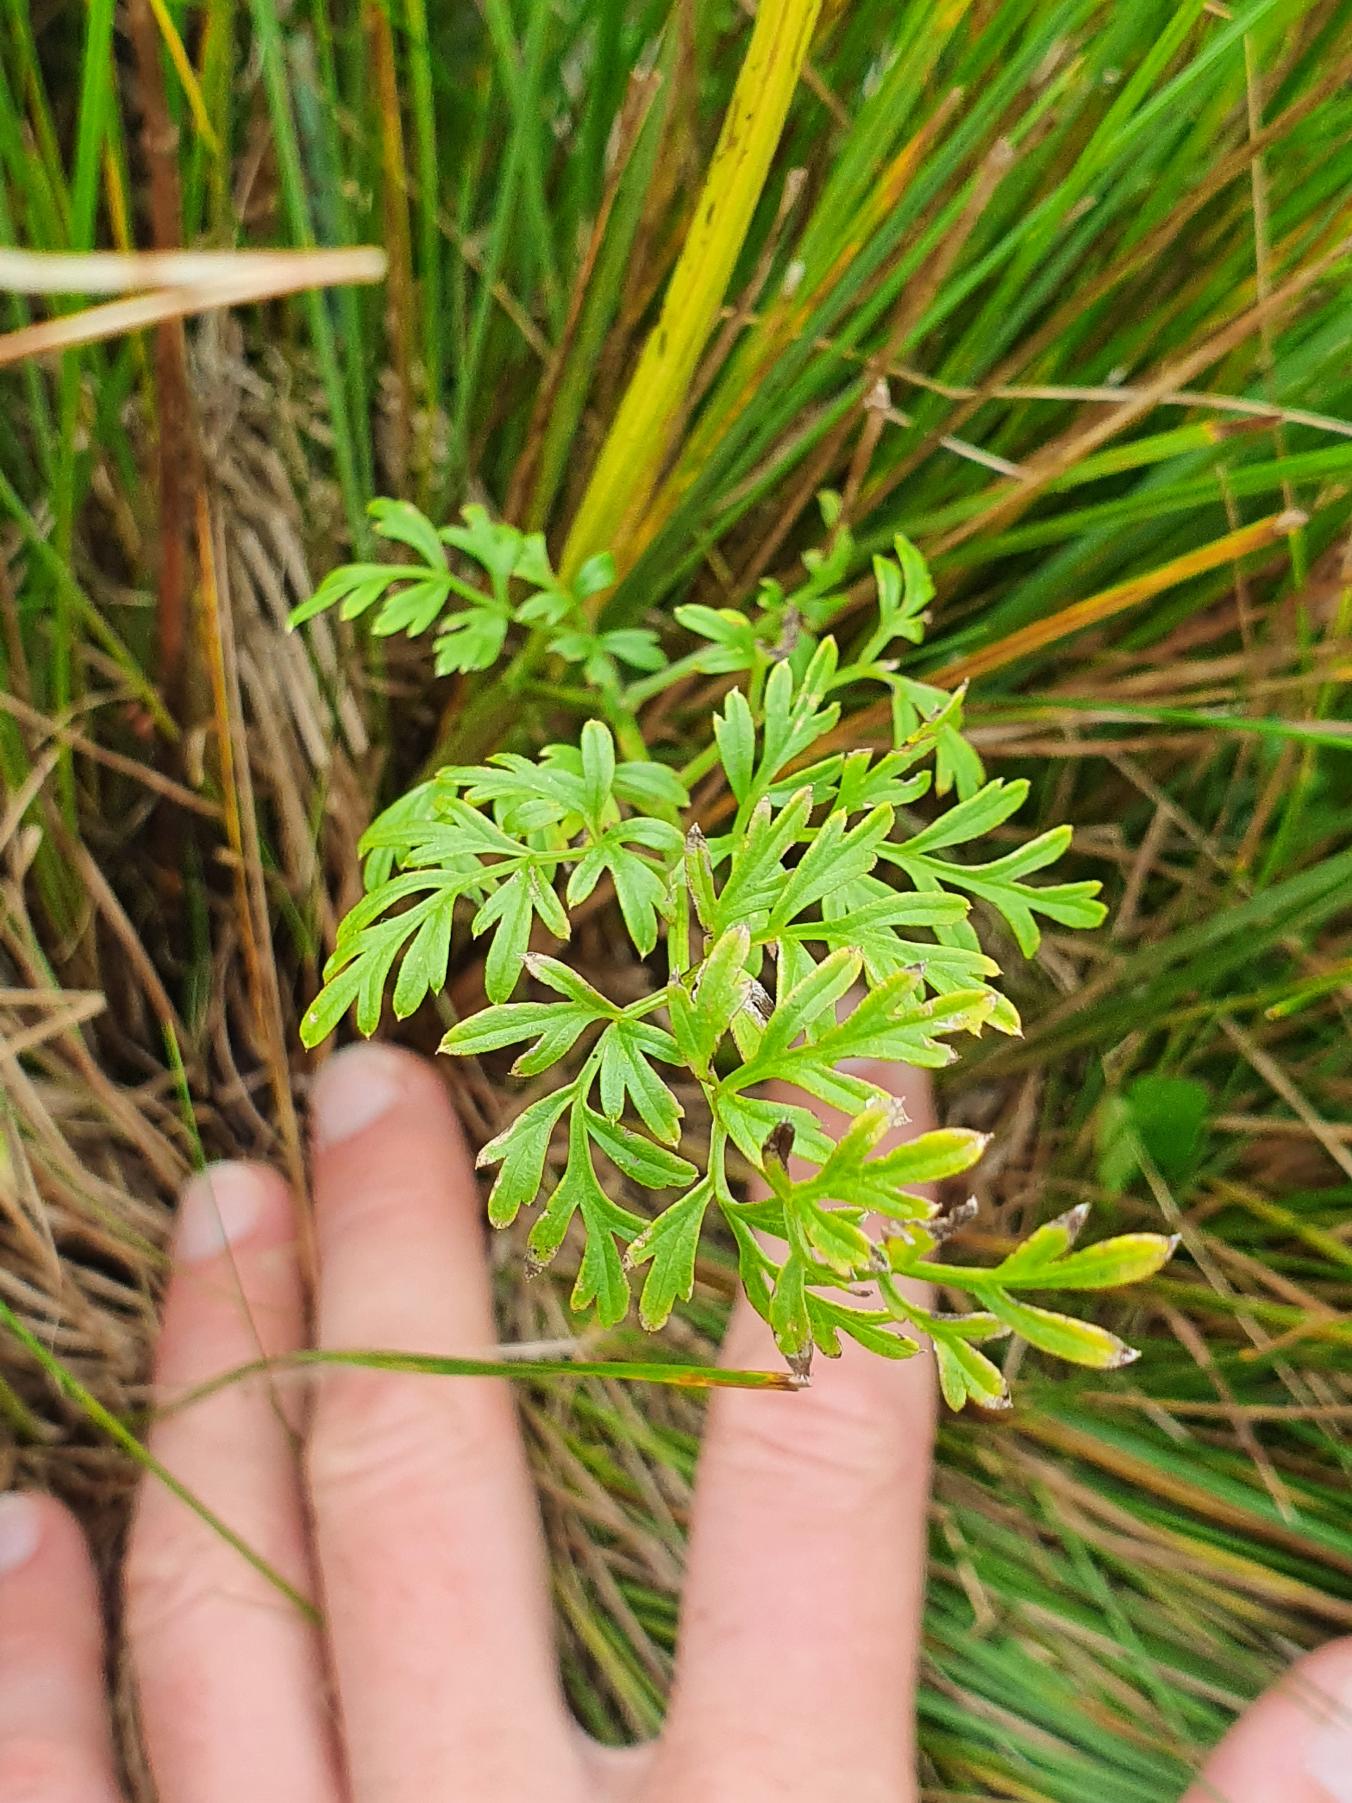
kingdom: Plantae
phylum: Tracheophyta
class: Magnoliopsida
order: Apiales
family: Apiaceae
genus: Selinum
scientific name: Selinum carvifolia
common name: Seline
